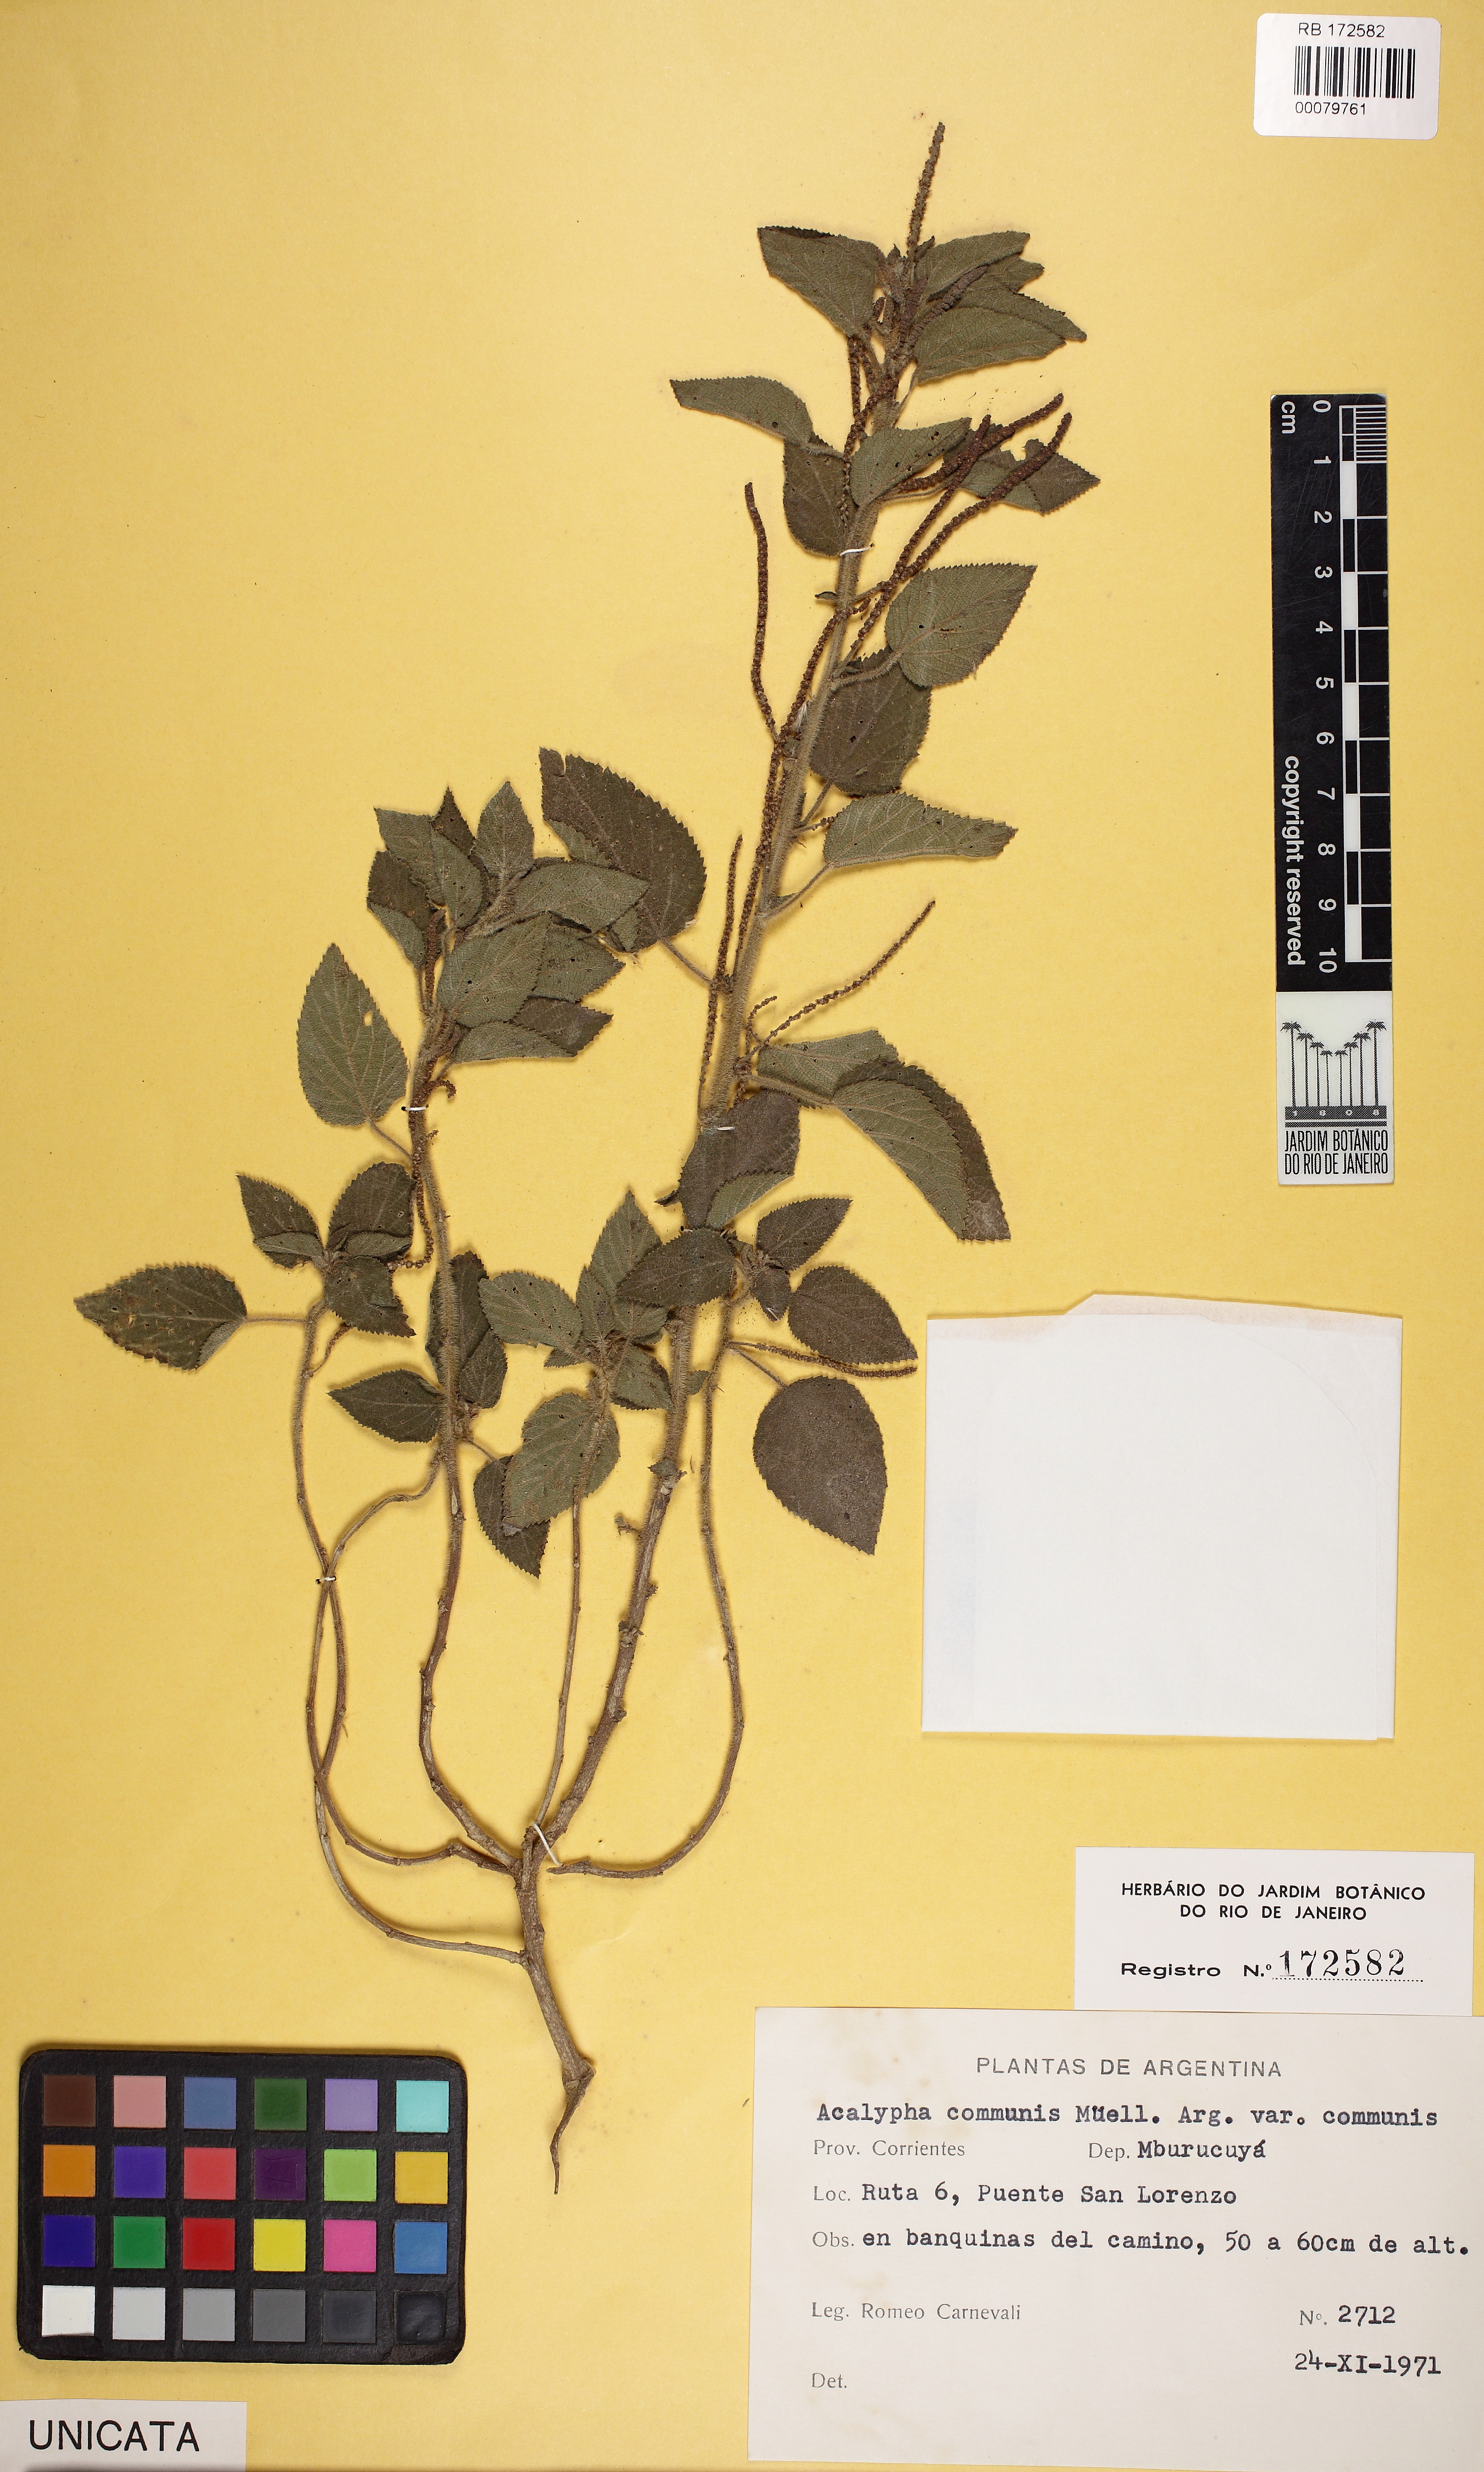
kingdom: Plantae
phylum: Tracheophyta
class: Magnoliopsida
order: Malpighiales
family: Euphorbiaceae
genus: Acalypha
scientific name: Acalypha communis
